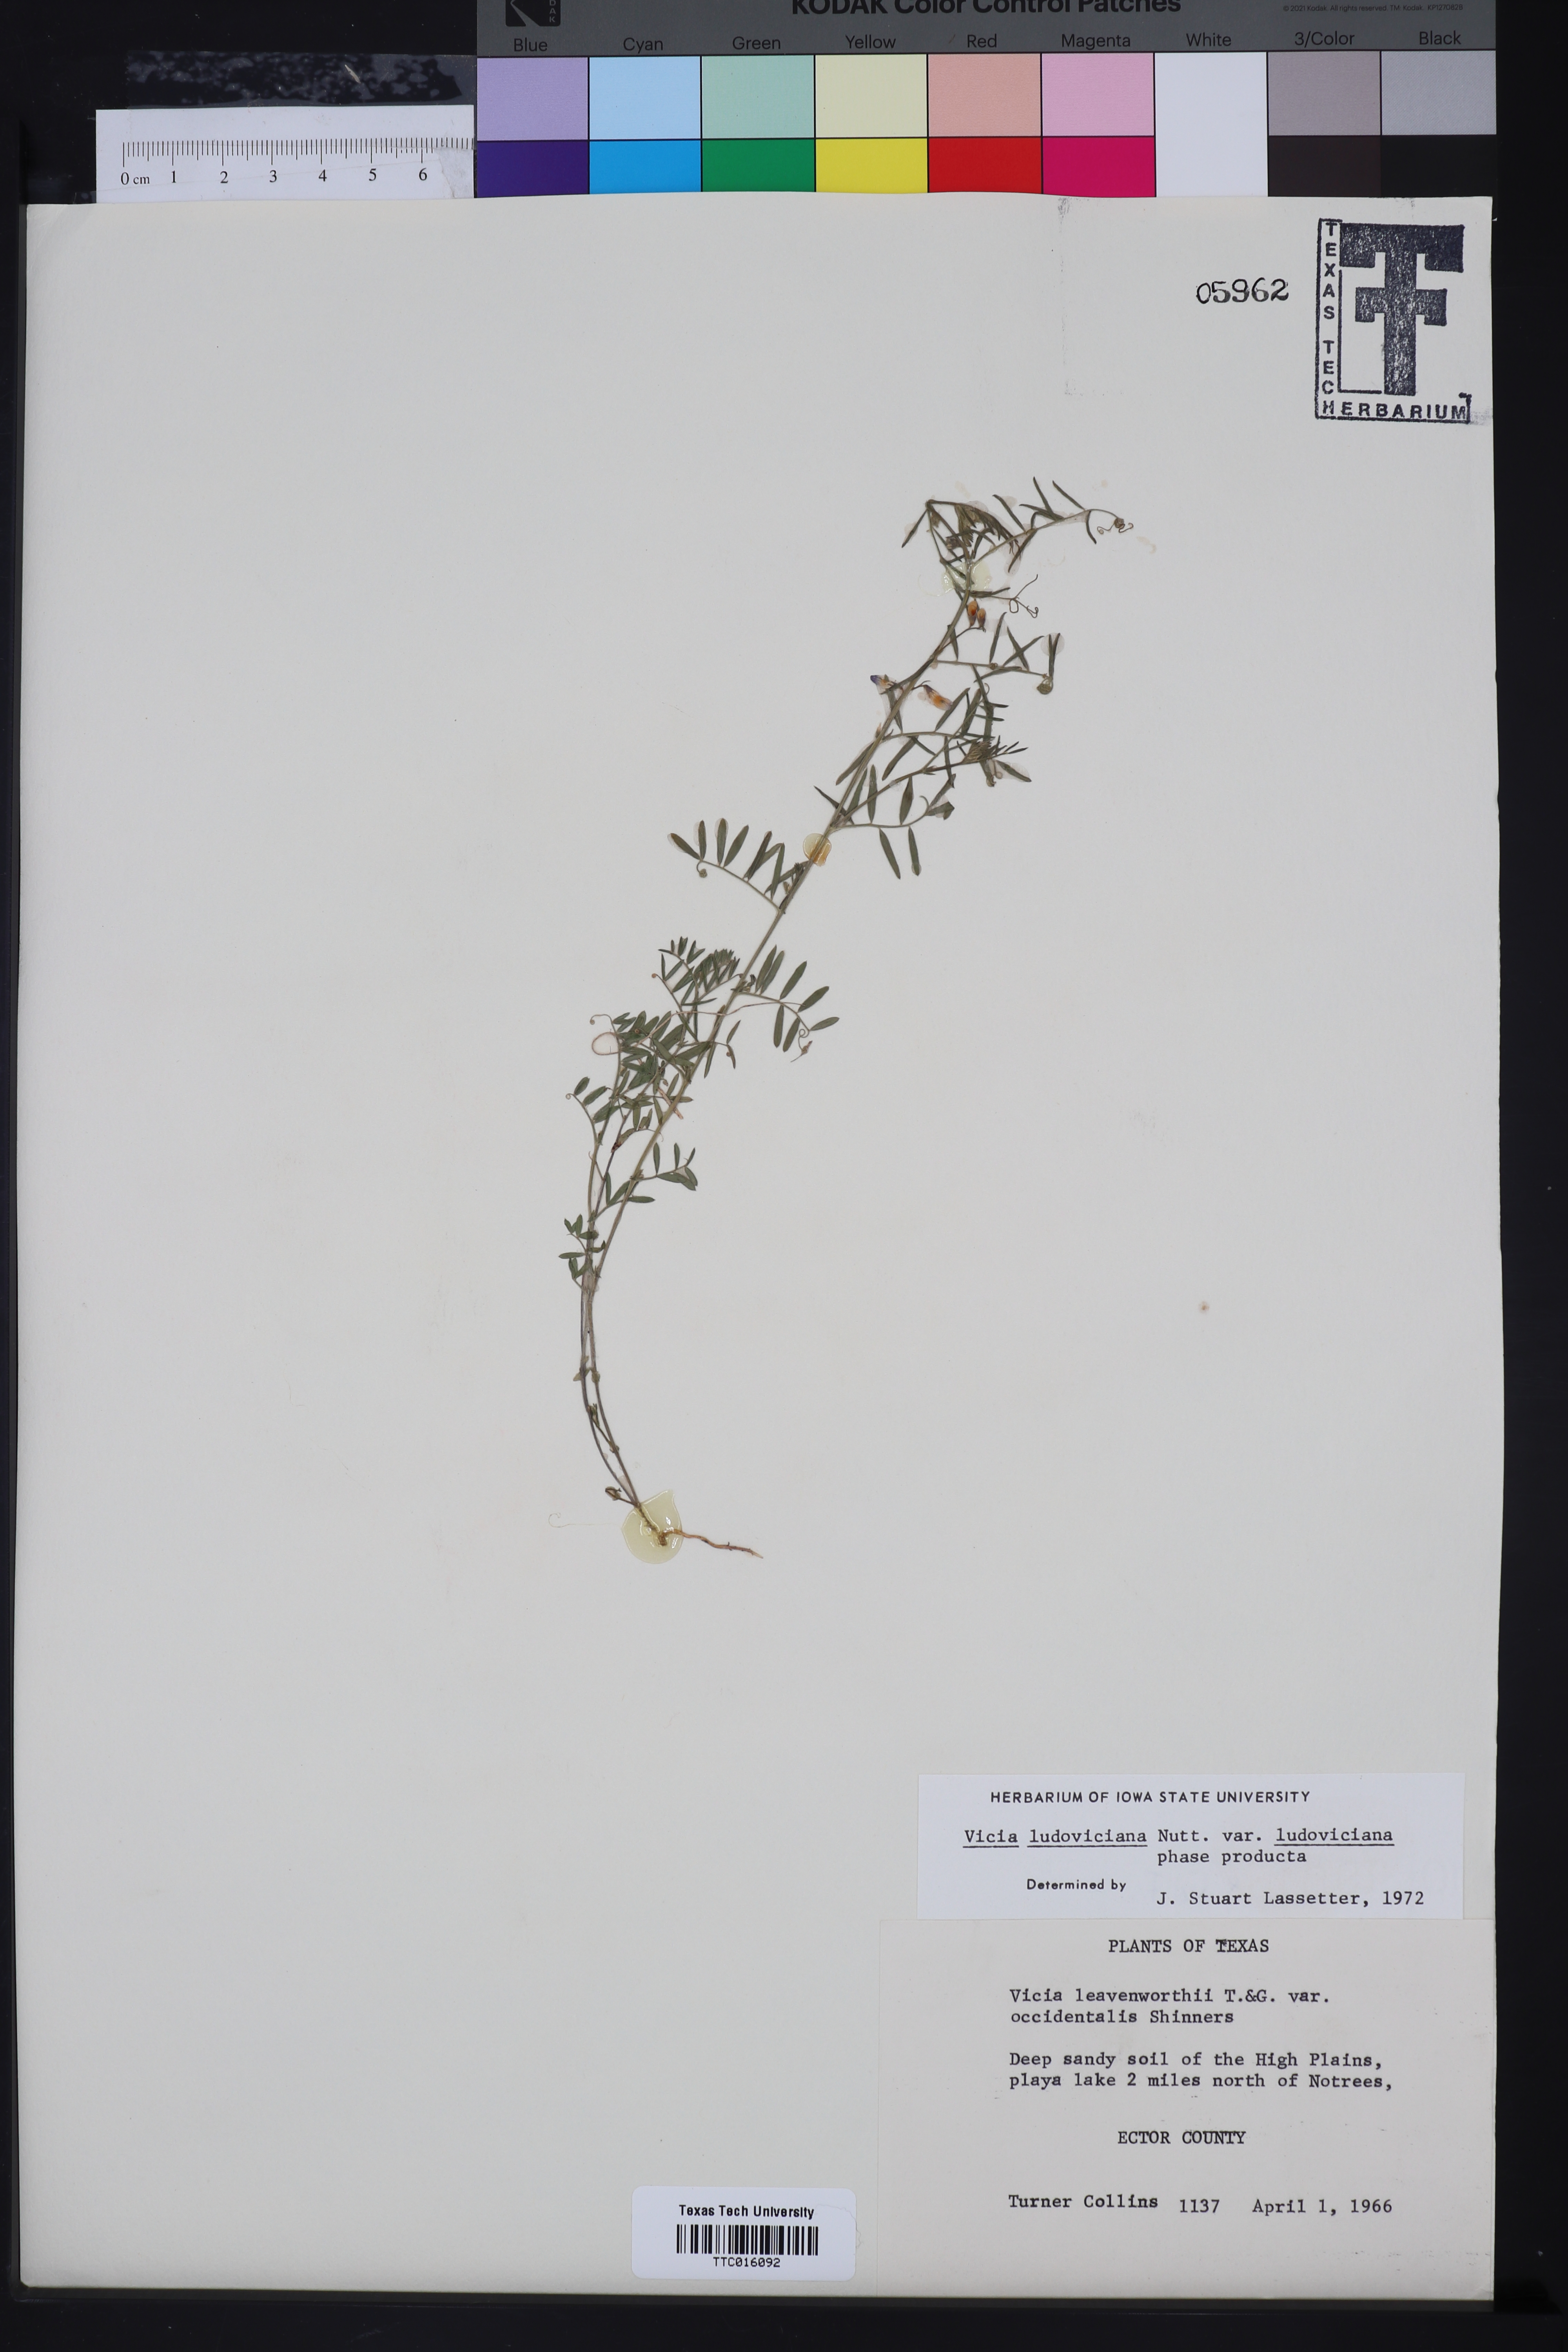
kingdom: Plantae
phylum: Tracheophyta
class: Magnoliopsida
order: Fabales
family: Fabaceae
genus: Vicia
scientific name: Vicia ludoviciana
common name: Louisiana vetch
